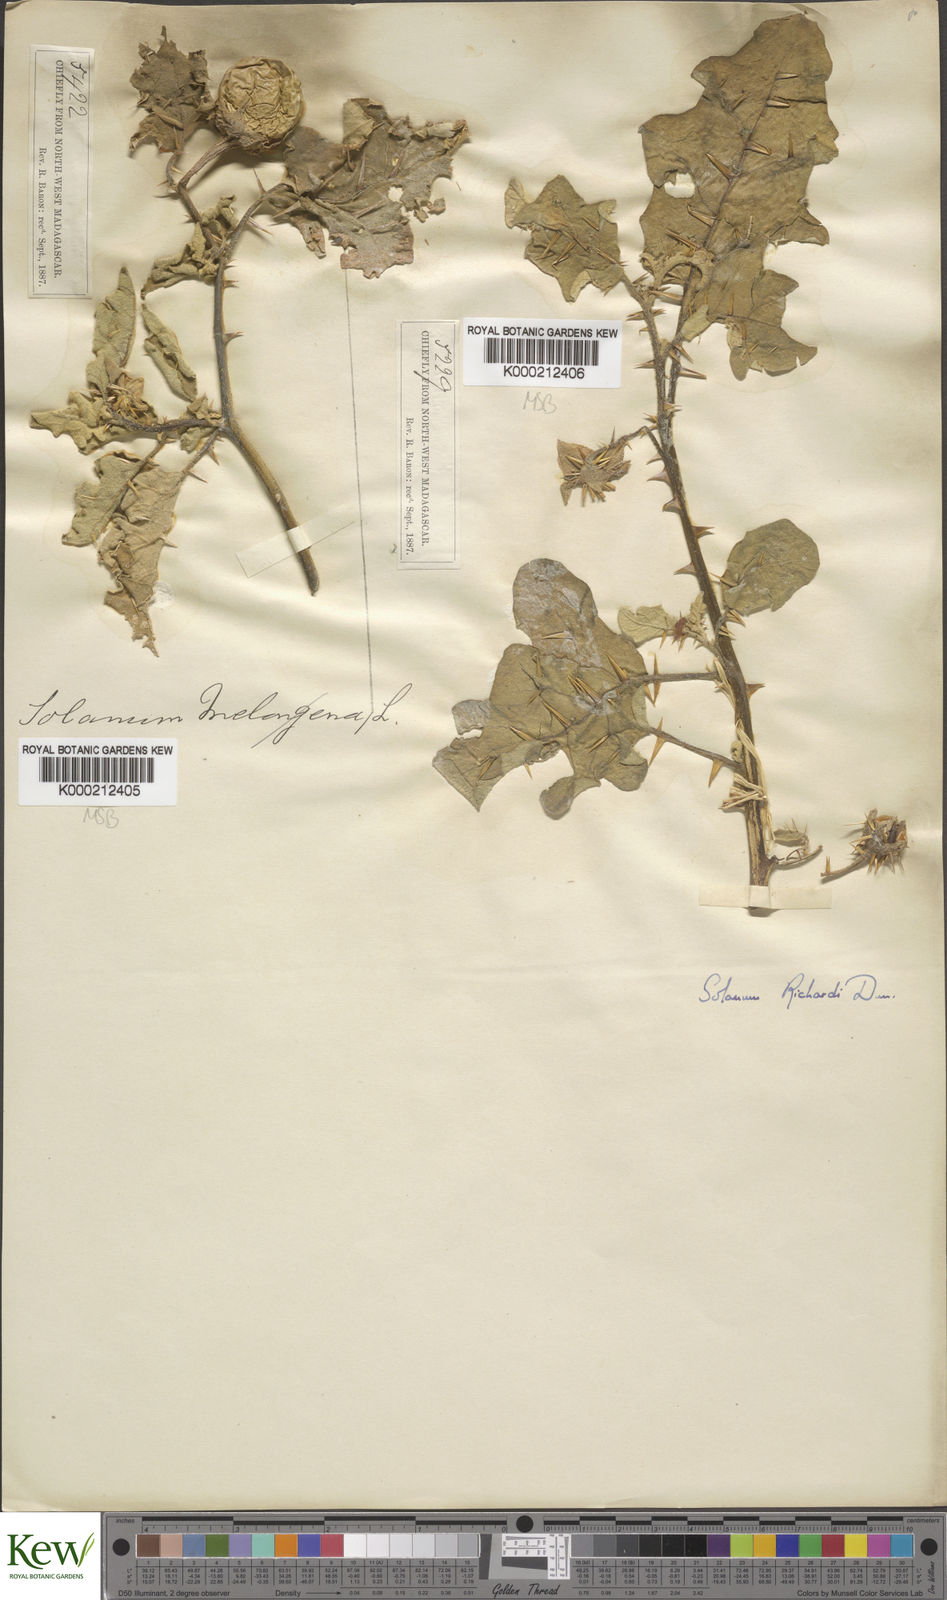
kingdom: Plantae
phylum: Tracheophyta
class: Magnoliopsida
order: Solanales
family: Solanaceae
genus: Solanum
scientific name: Solanum richardii
